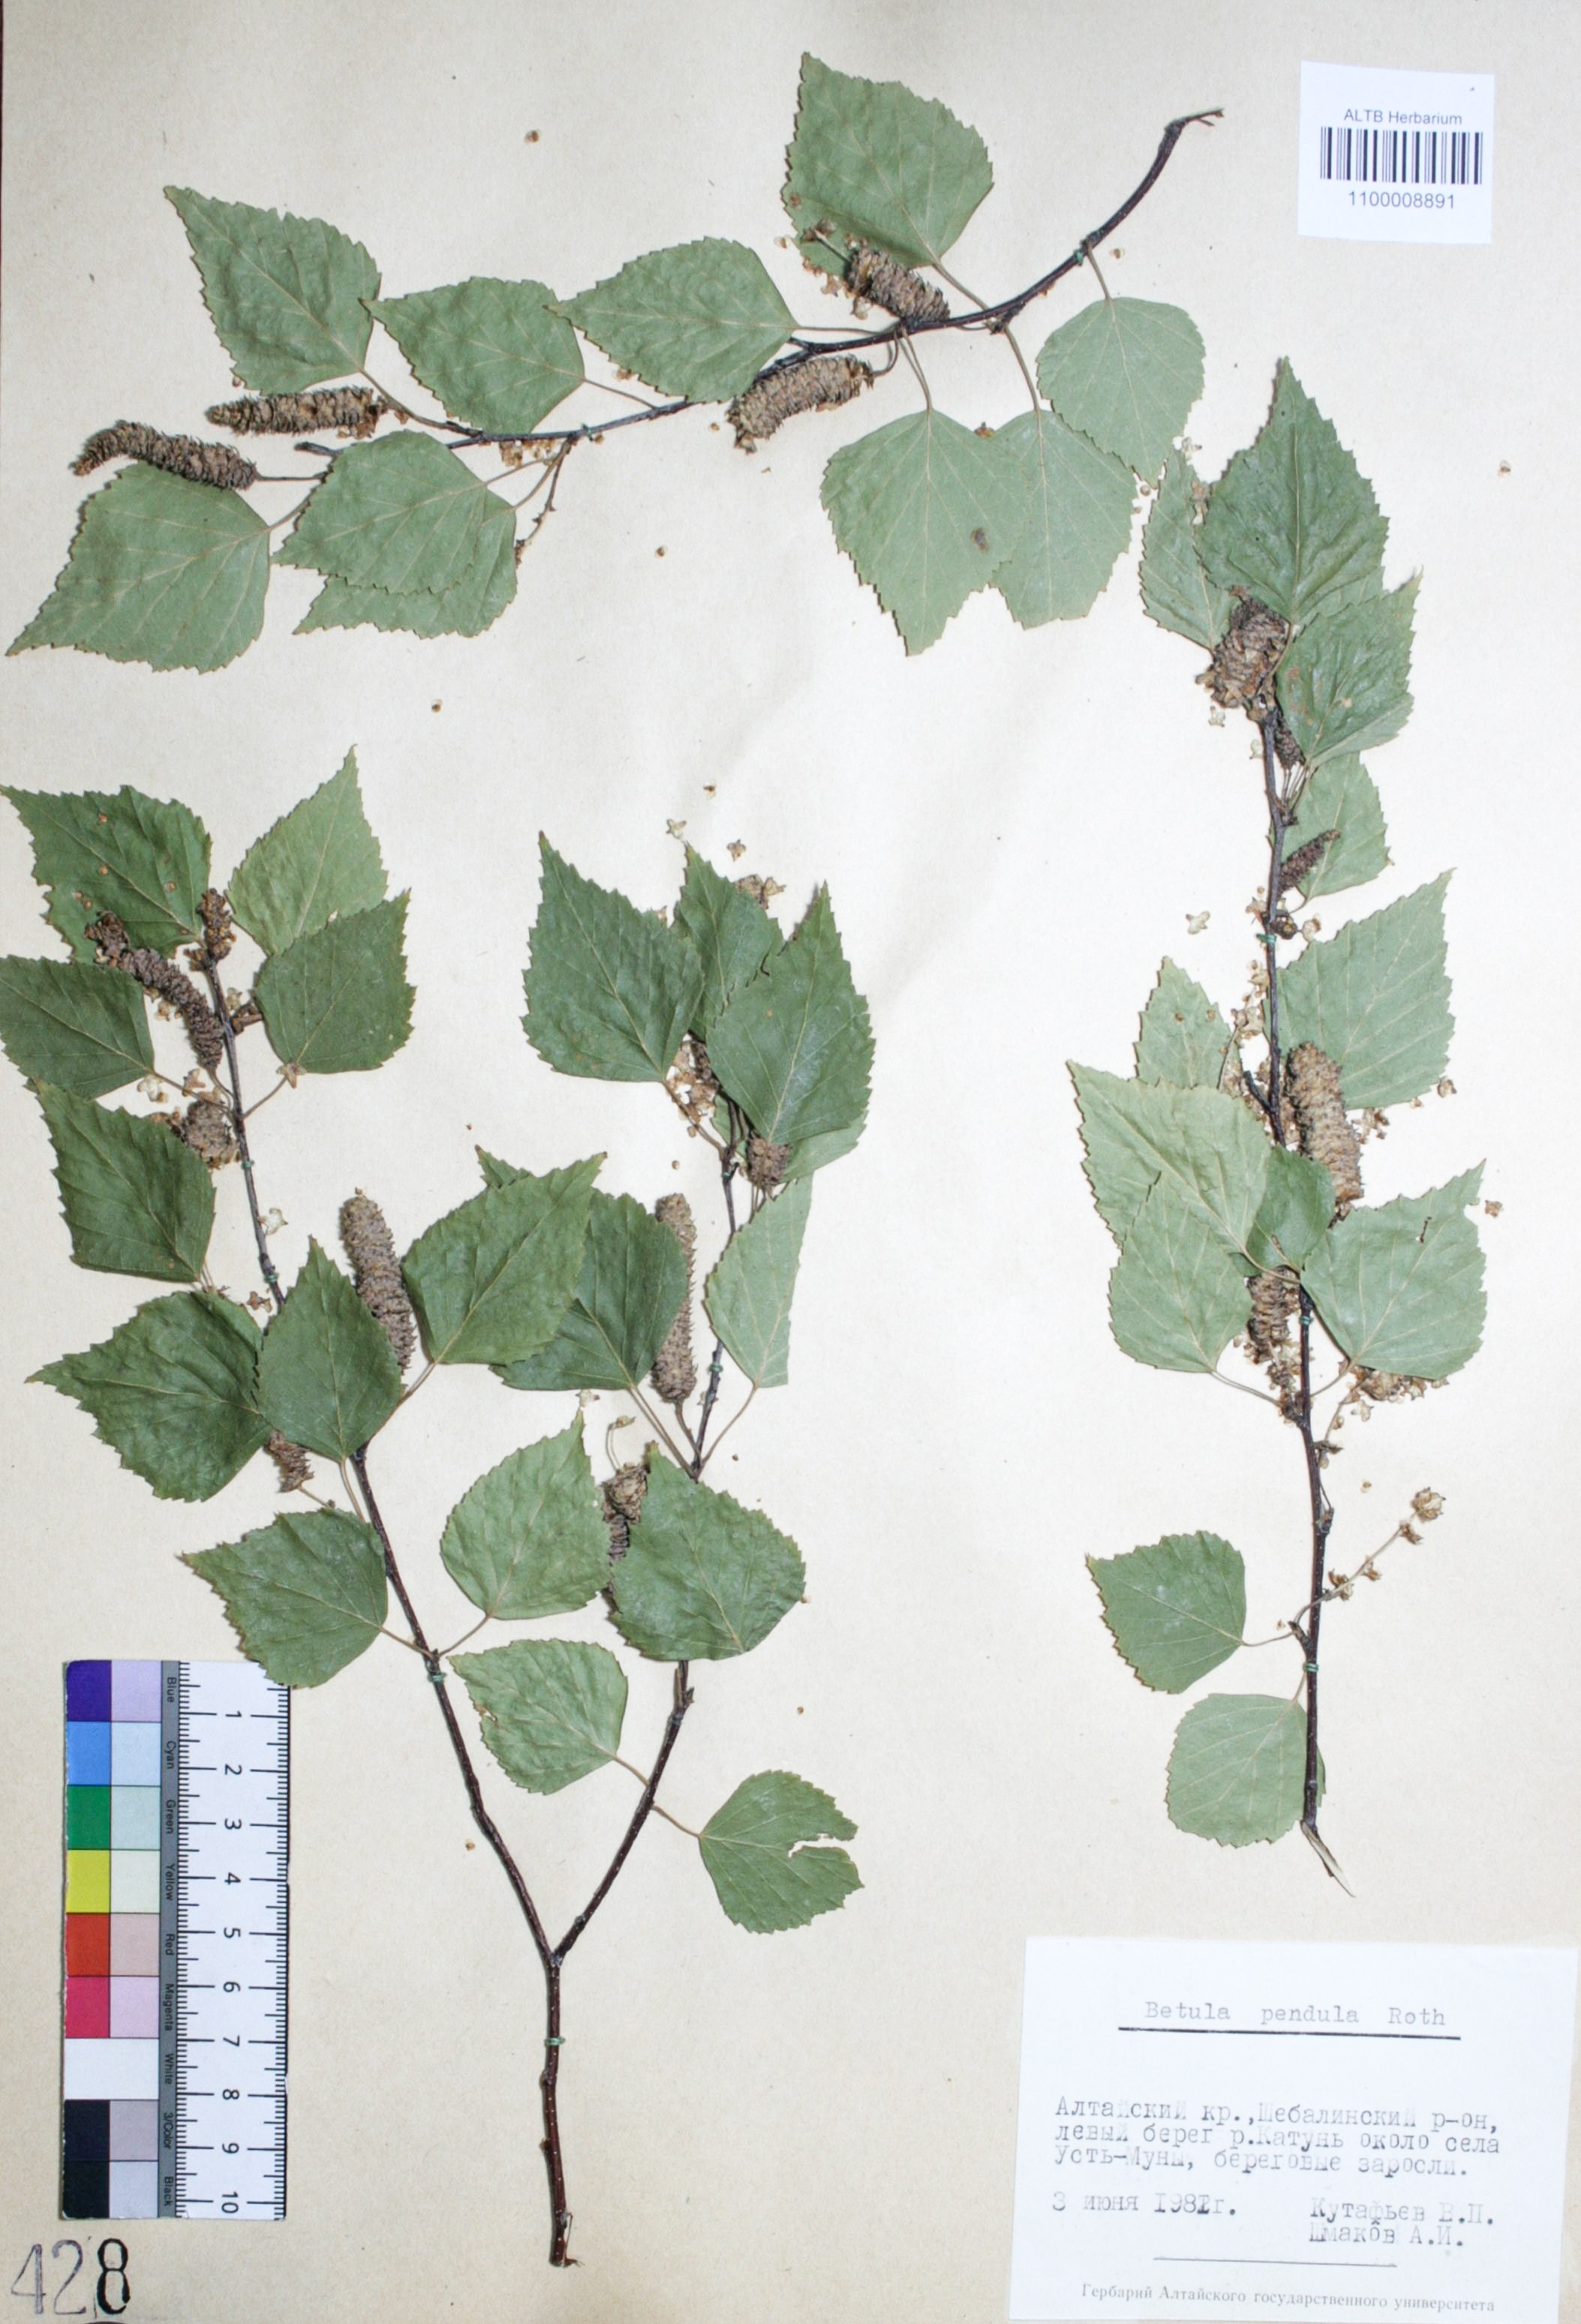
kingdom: Plantae
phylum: Tracheophyta
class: Magnoliopsida
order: Fagales
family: Betulaceae
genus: Betula
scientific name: Betula pendula
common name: Silver birch
